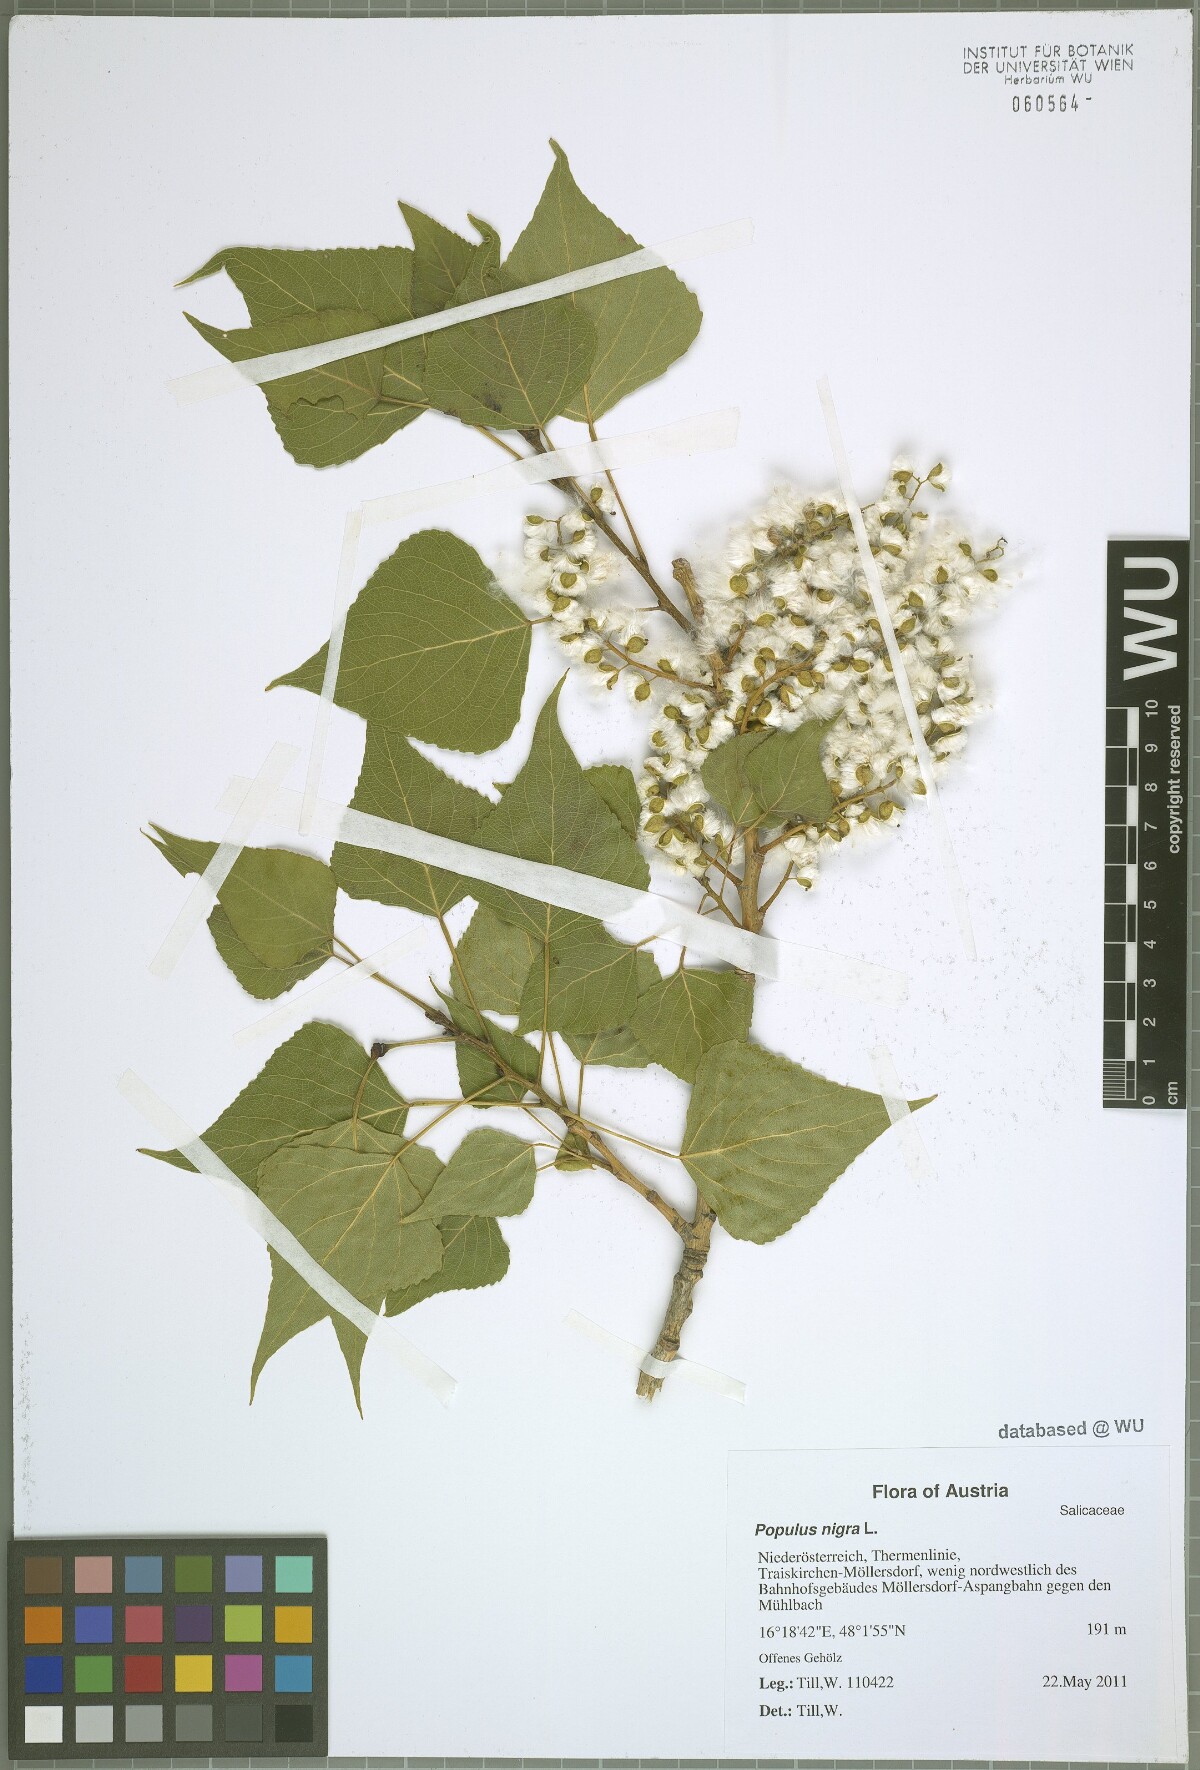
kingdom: Plantae
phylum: Tracheophyta
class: Magnoliopsida
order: Malpighiales
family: Salicaceae
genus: Populus
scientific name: Populus nigra
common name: Black poplar
